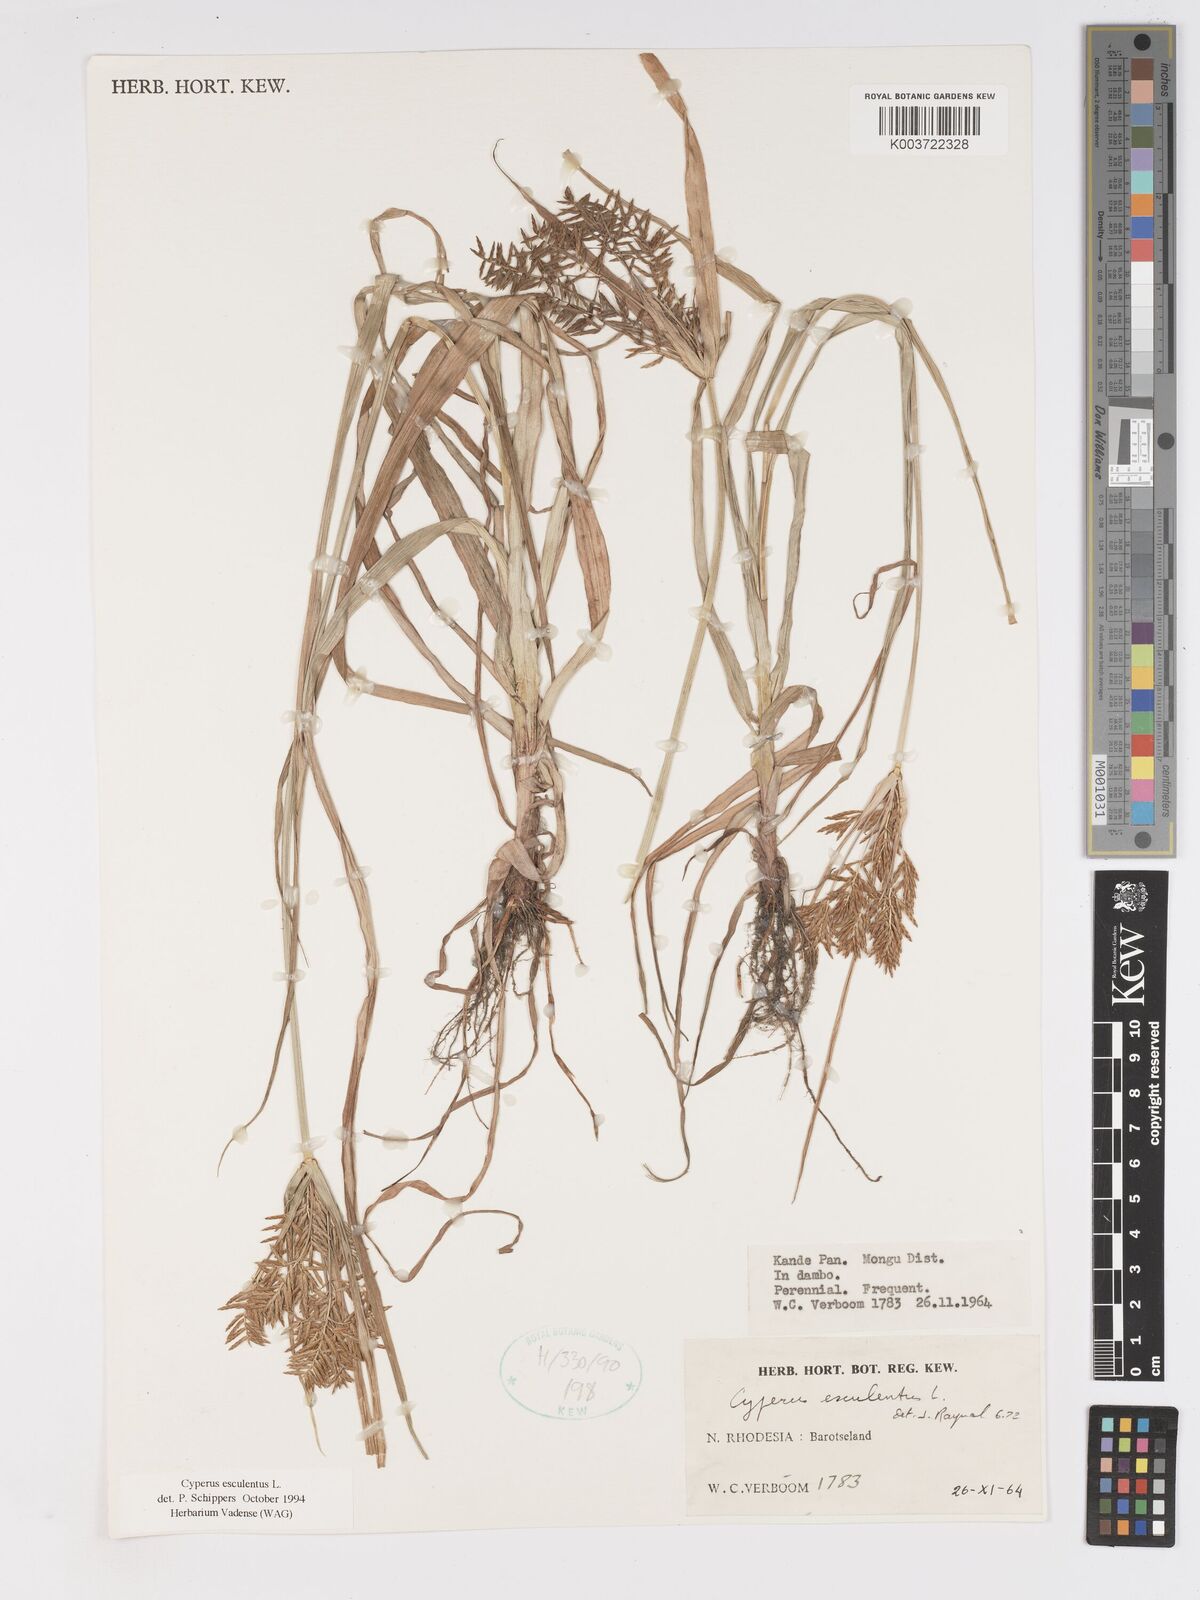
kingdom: Plantae
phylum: Tracheophyta
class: Liliopsida
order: Poales
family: Cyperaceae
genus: Cyperus
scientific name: Cyperus esculentus
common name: Yellow nutsedge
